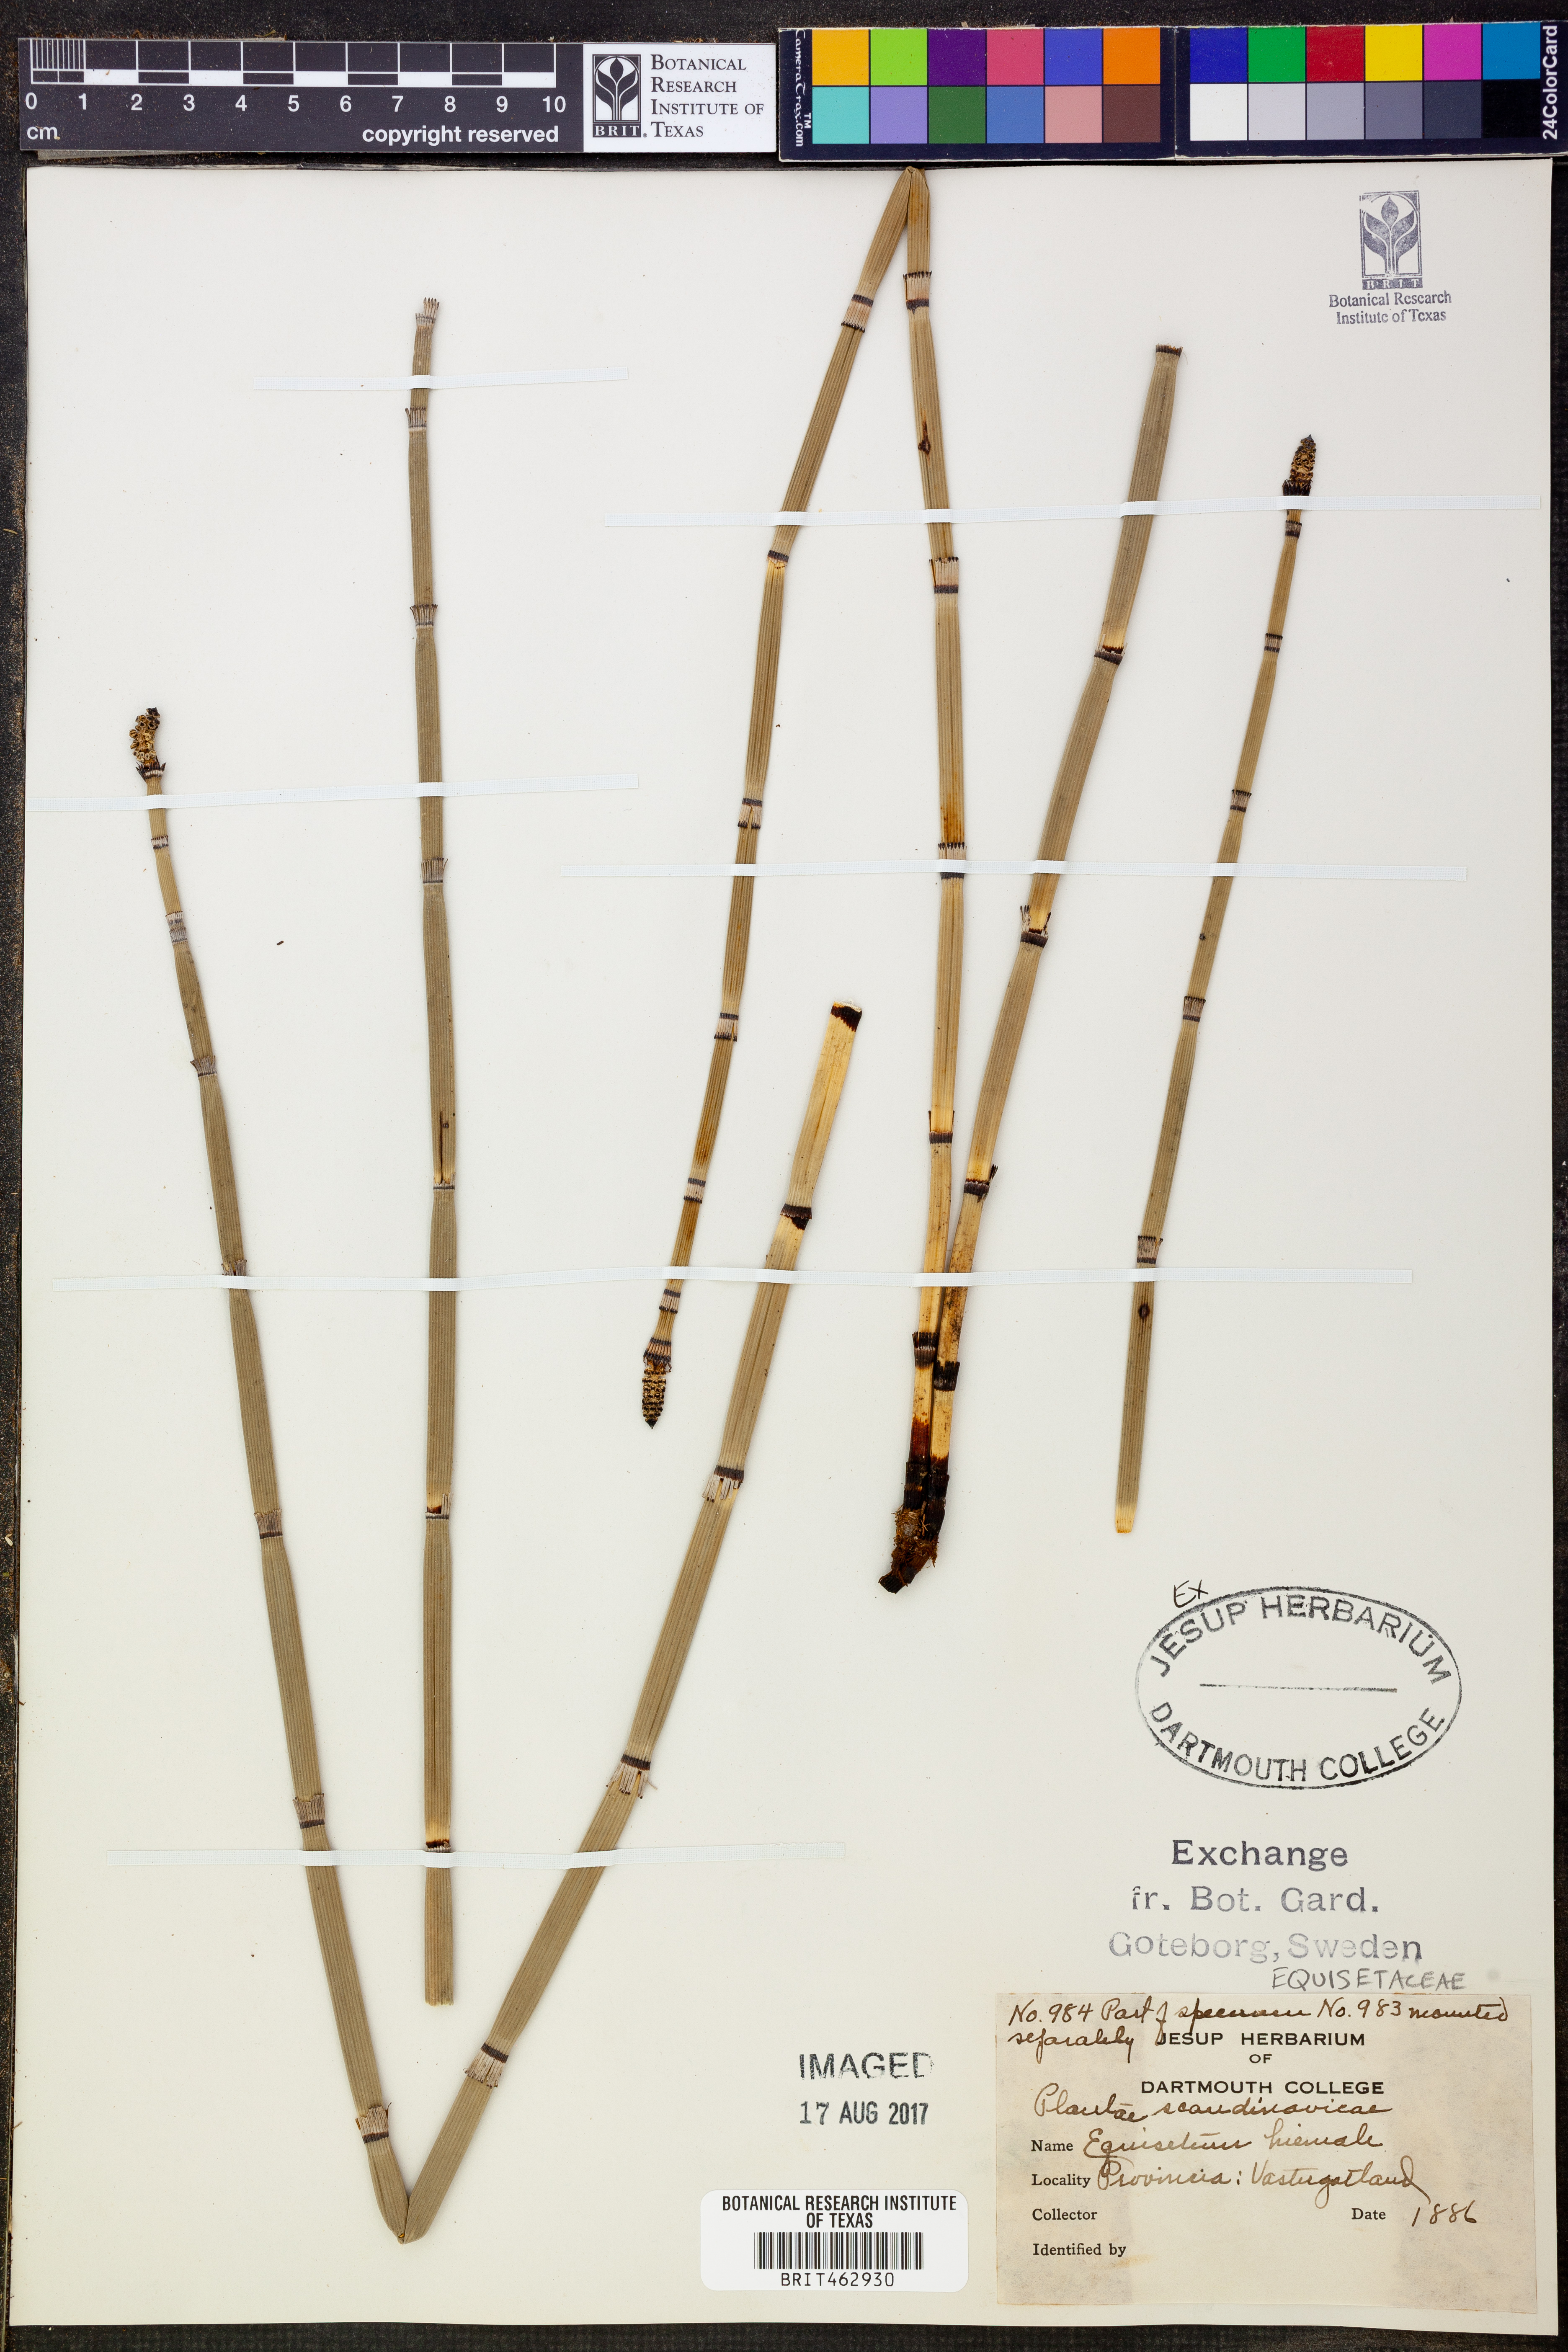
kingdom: Plantae
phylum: Tracheophyta
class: Polypodiopsida
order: Equisetales
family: Equisetaceae
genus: Equisetum
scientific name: Equisetum hyemale
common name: Rough horsetail
